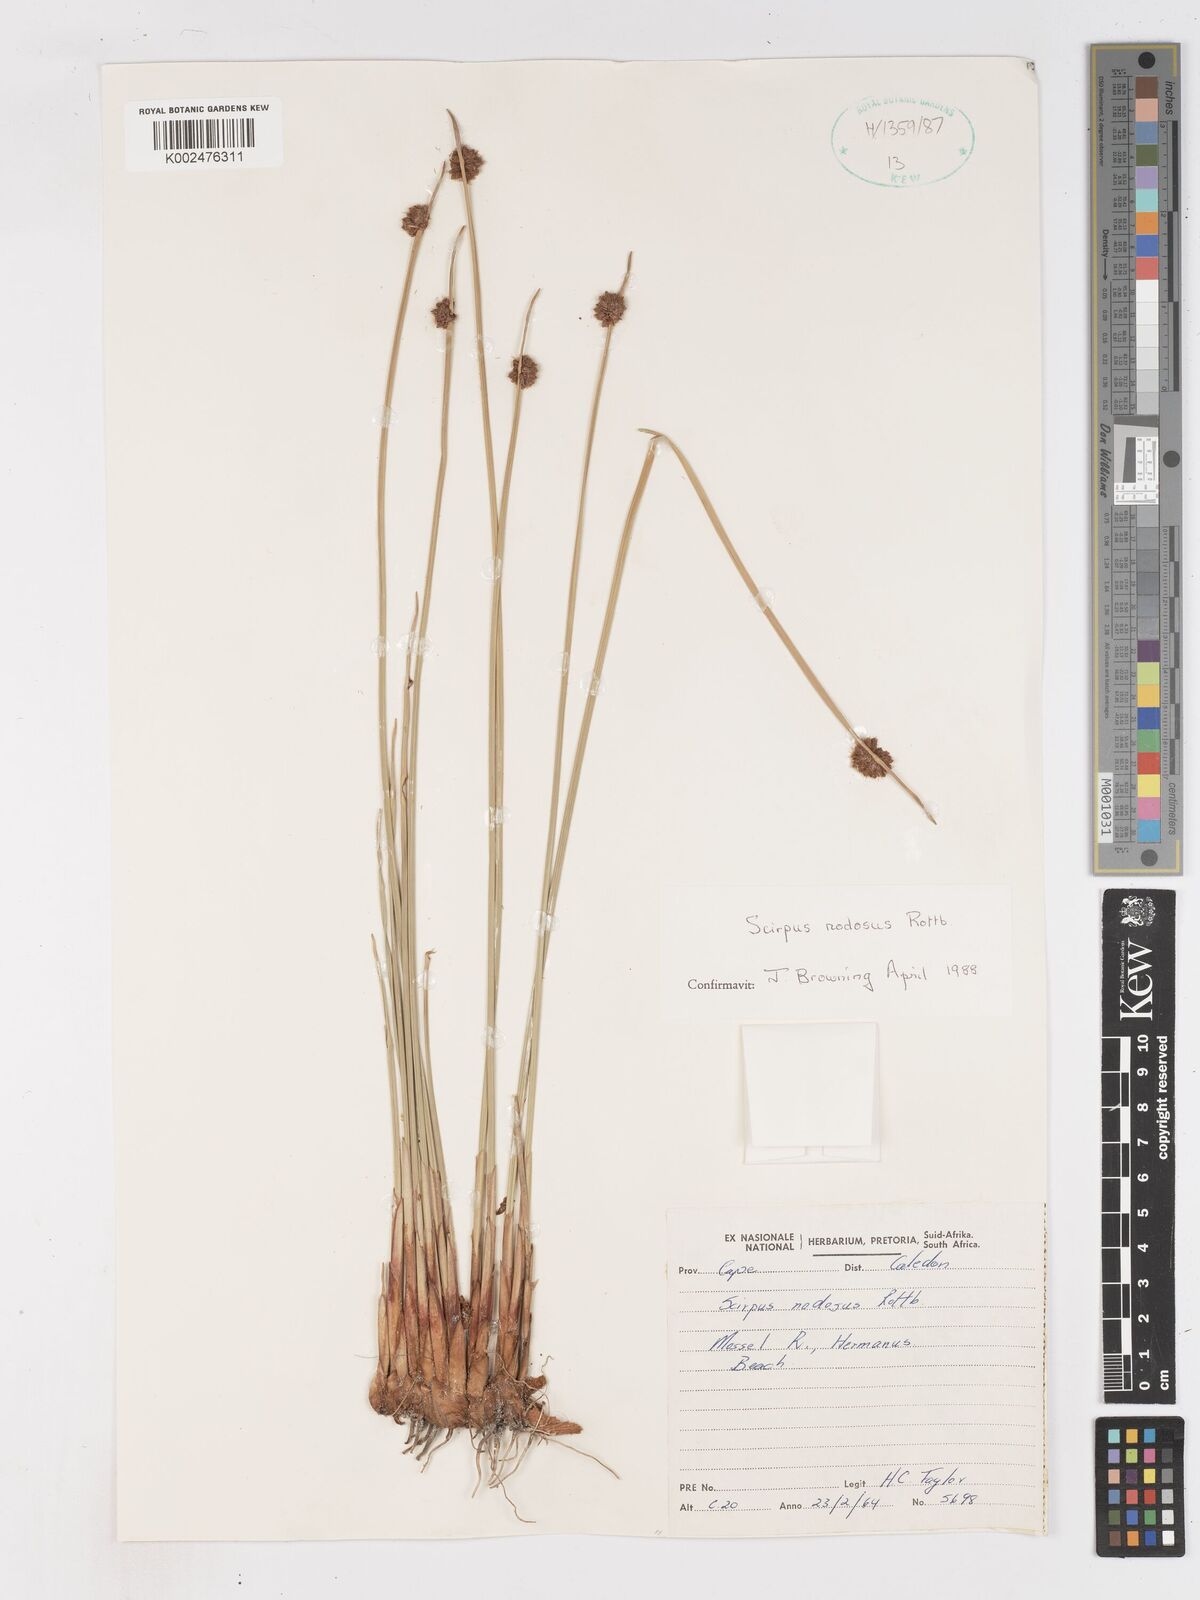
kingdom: Plantae
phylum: Tracheophyta
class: Liliopsida
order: Poales
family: Cyperaceae
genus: Ficinia
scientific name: Ficinia nodosa
